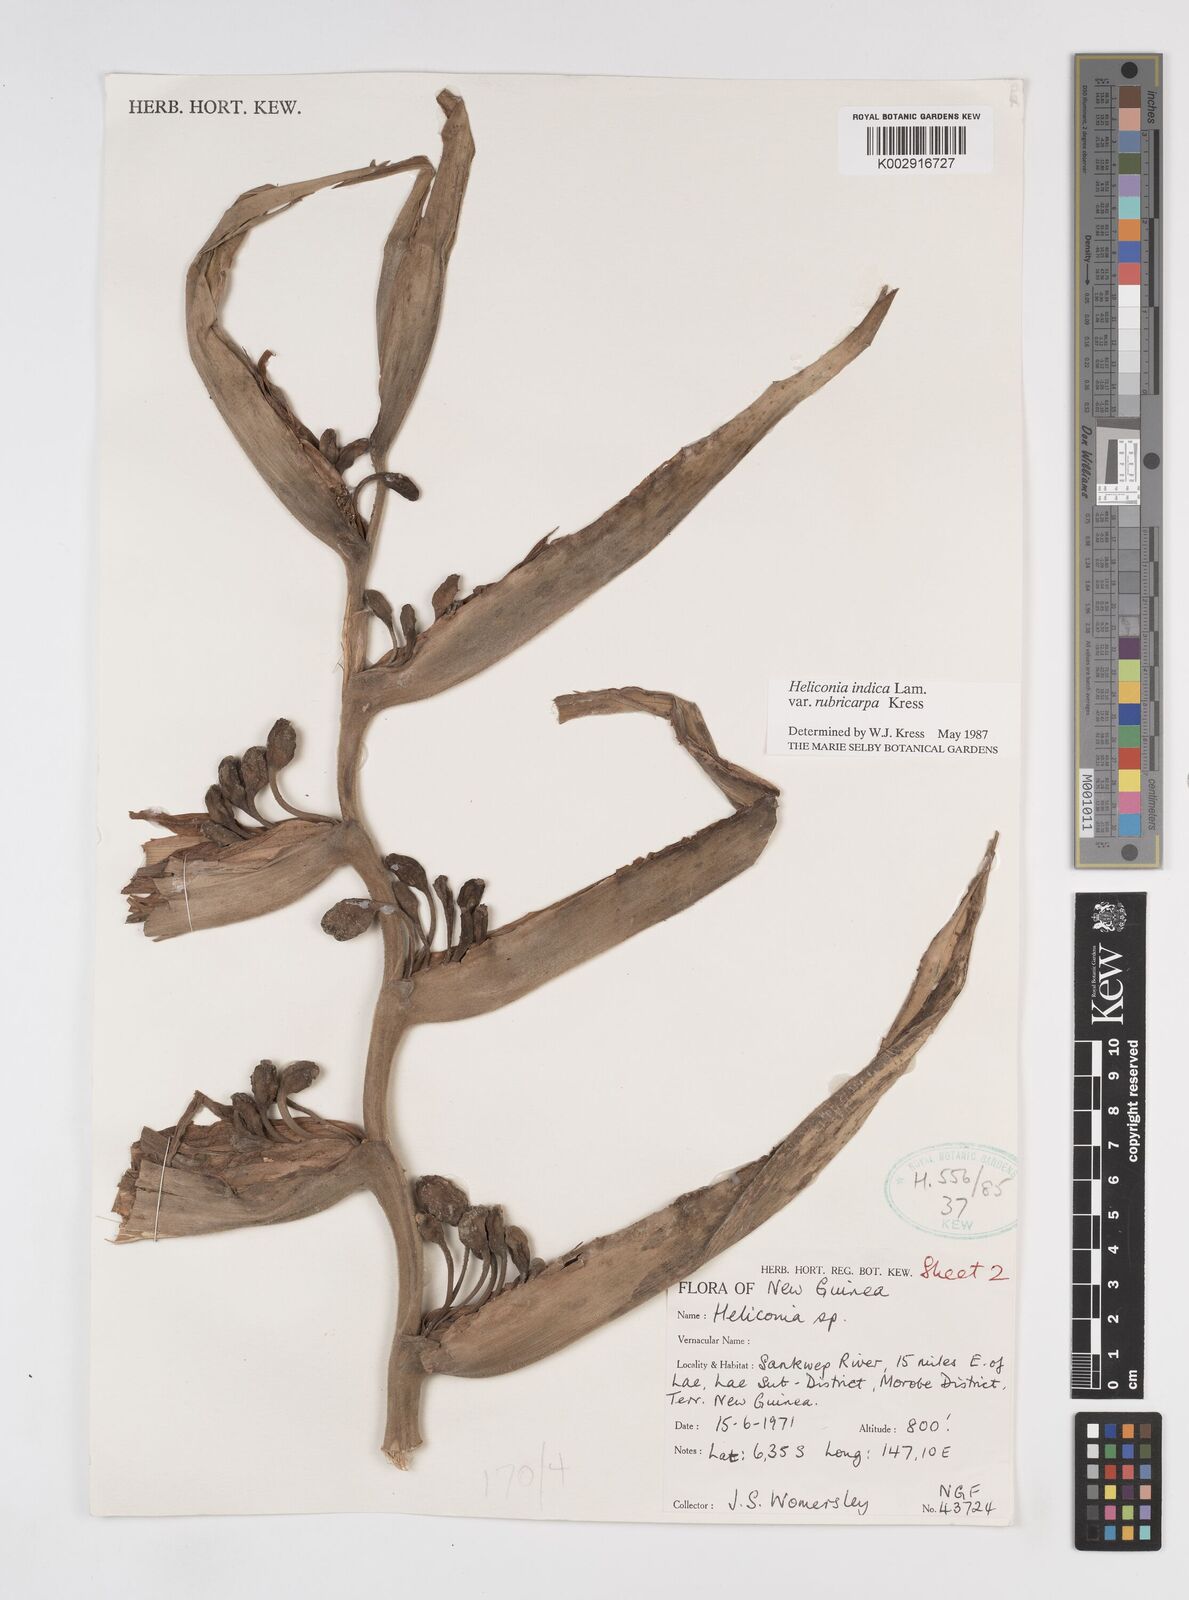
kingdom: Plantae
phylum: Tracheophyta
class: Liliopsida
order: Zingiberales
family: Heliconiaceae
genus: Heliconia
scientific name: Heliconia indica
